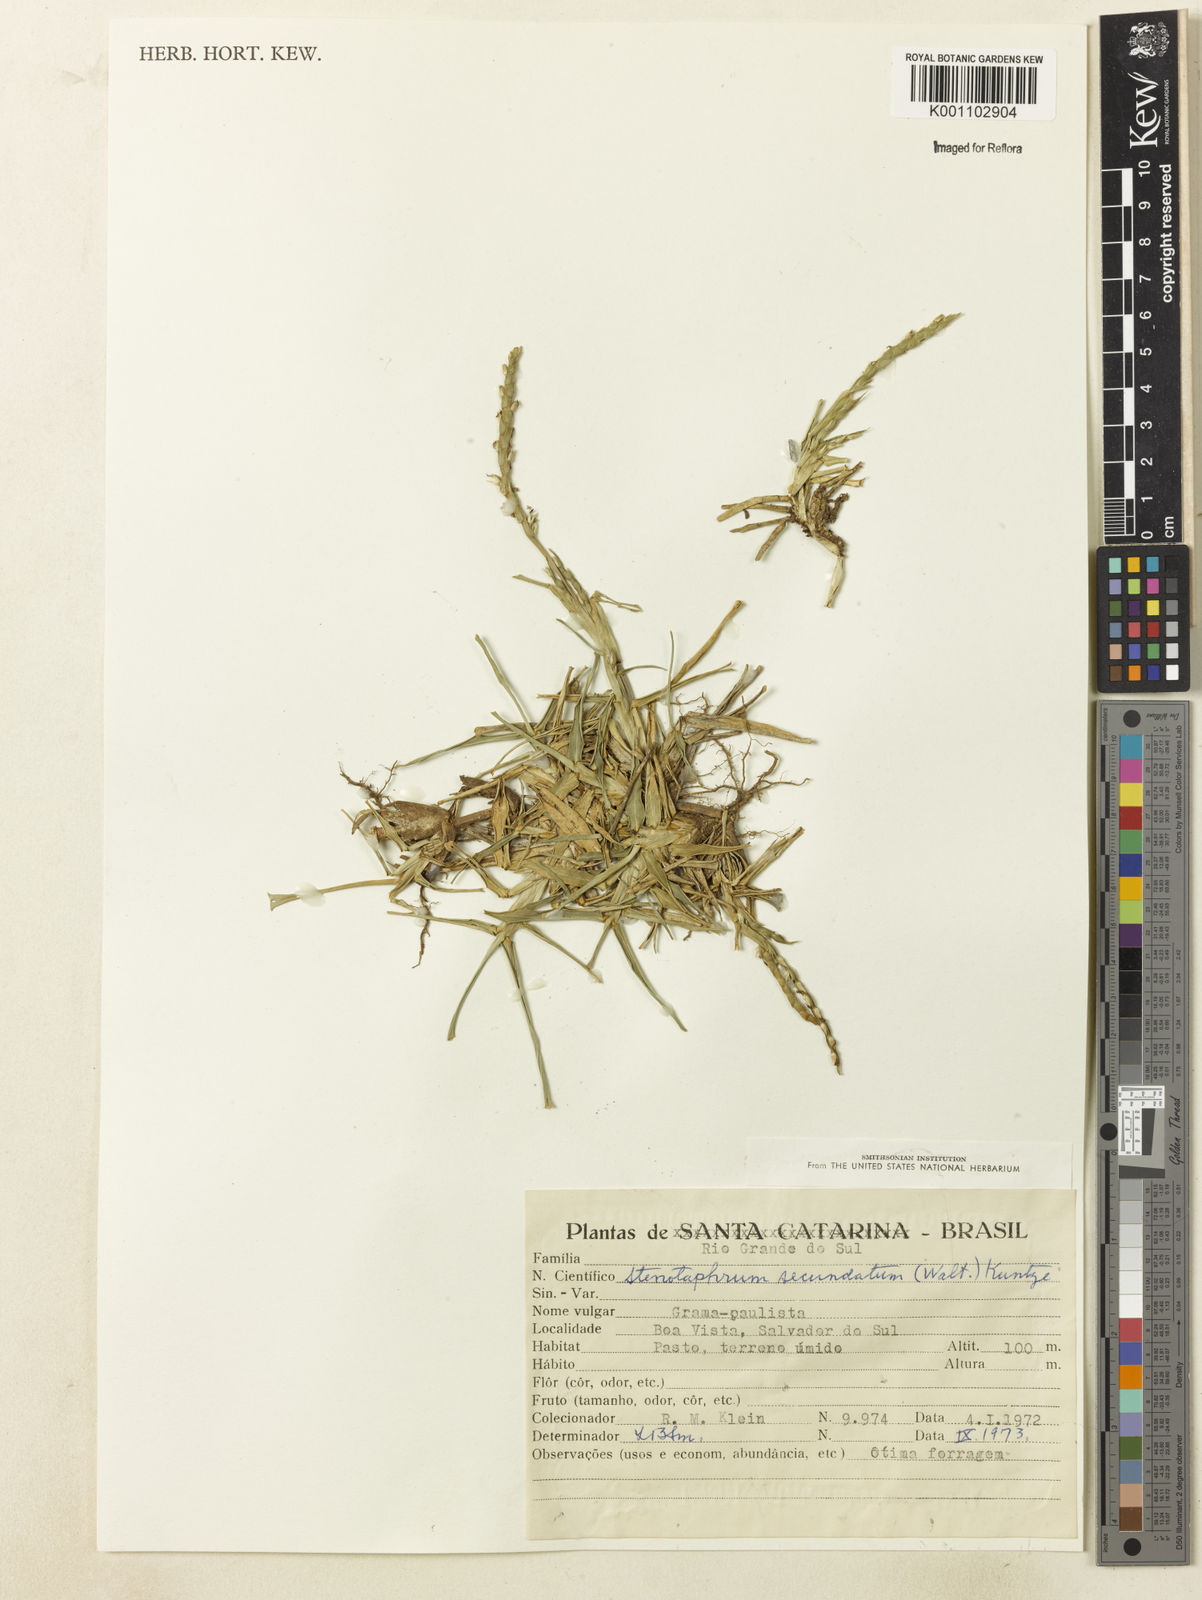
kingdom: Plantae
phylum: Tracheophyta
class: Liliopsida
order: Poales
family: Poaceae
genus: Stenotaphrum
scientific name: Stenotaphrum secundatum
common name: St. augustine grass
